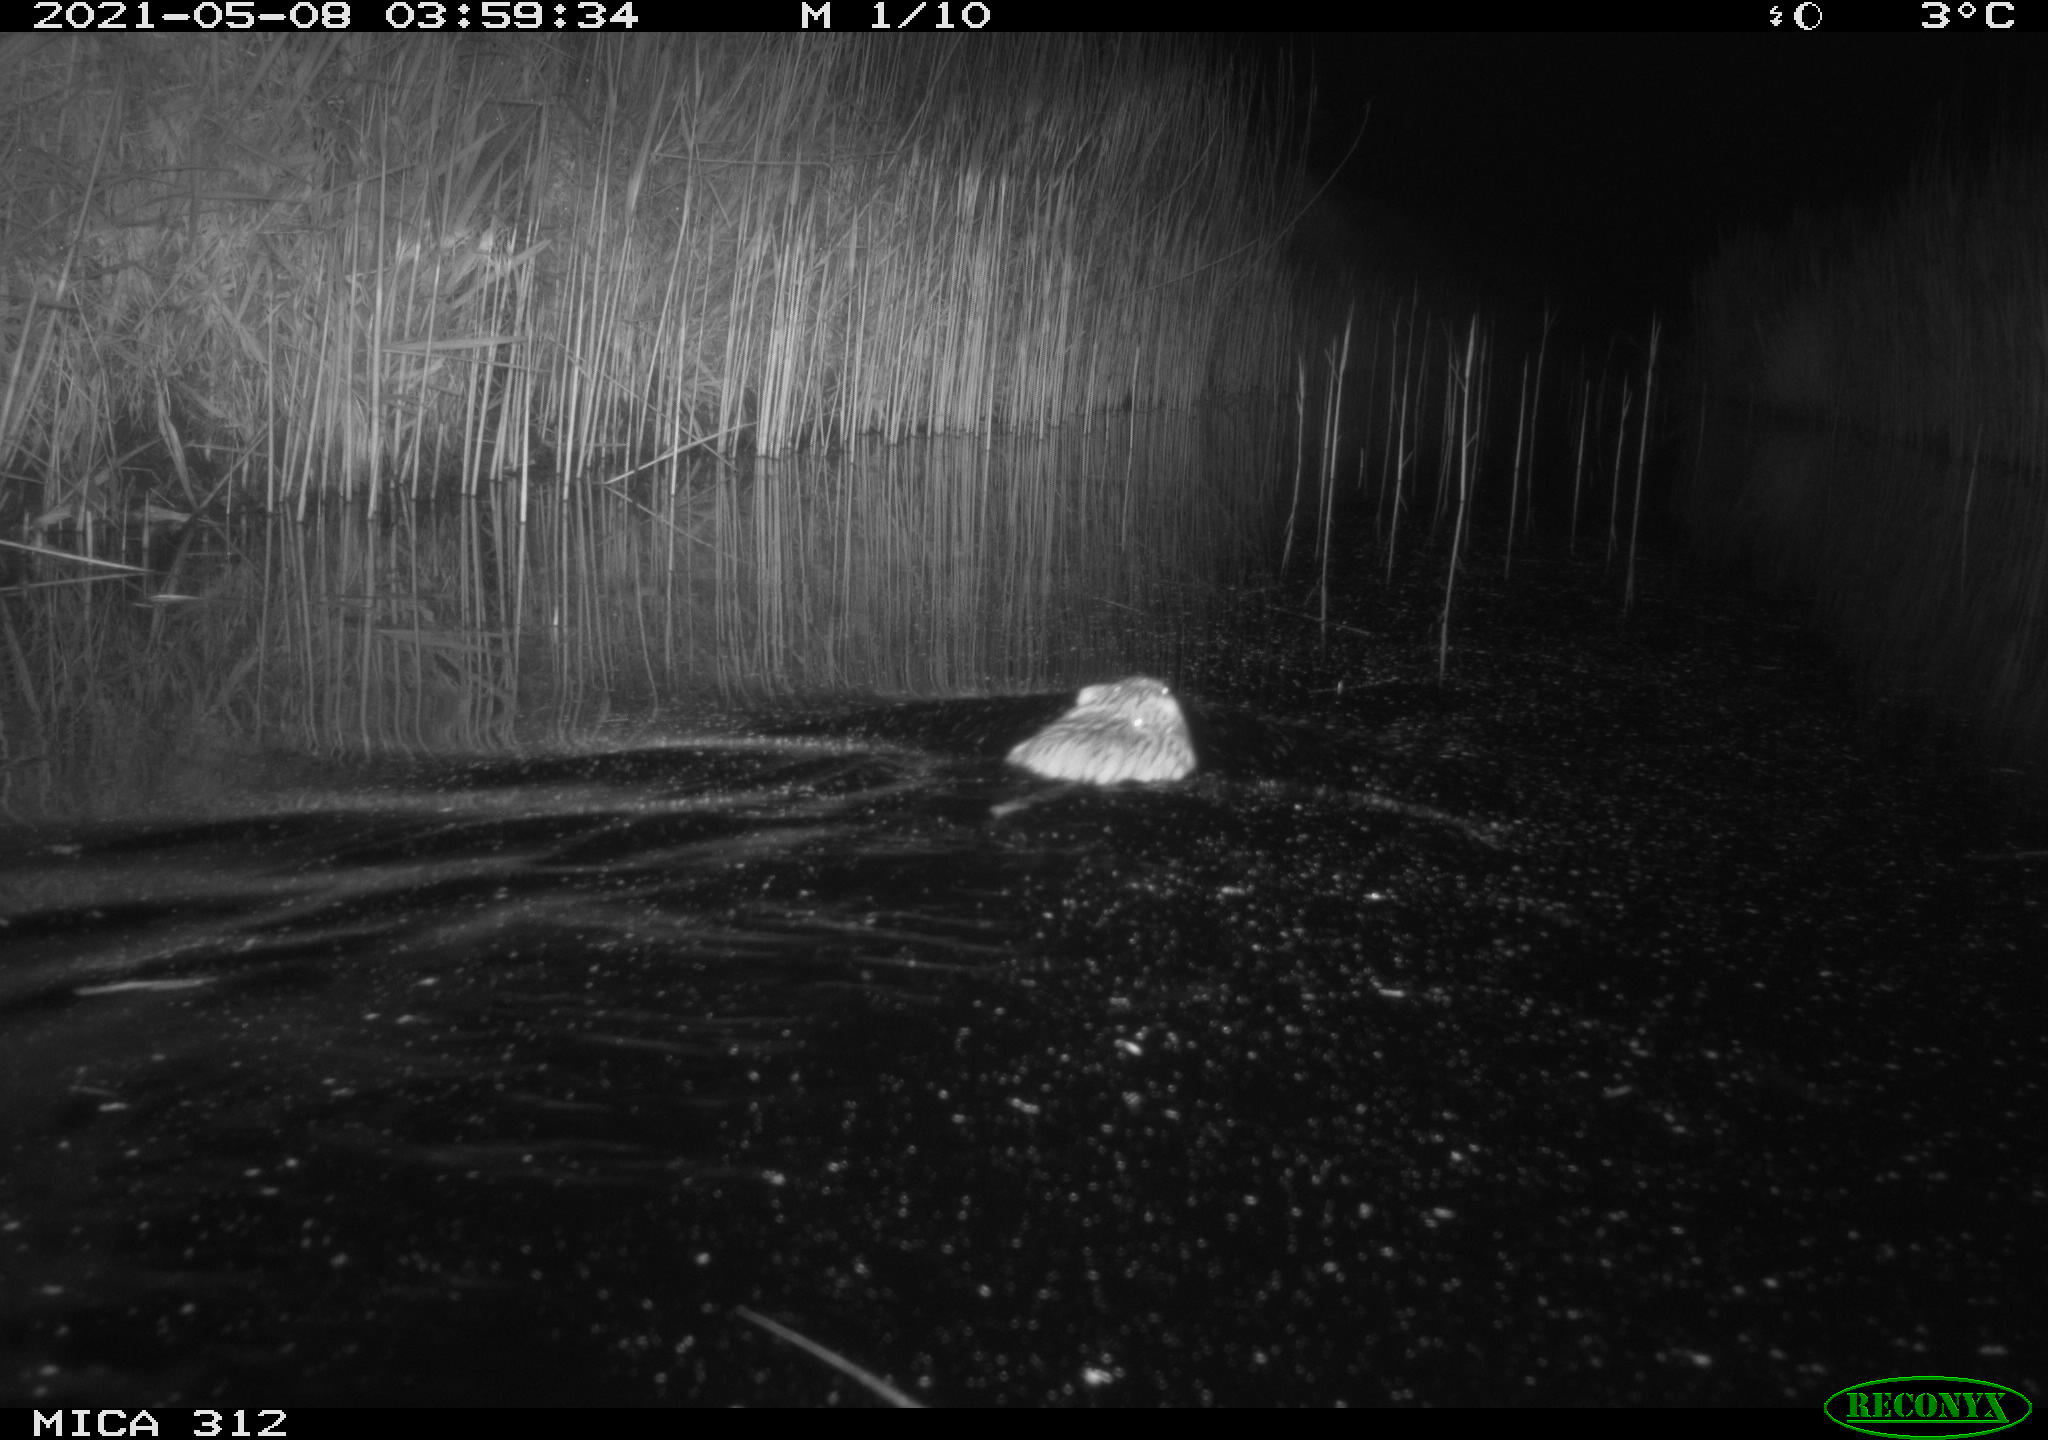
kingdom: Animalia
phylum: Chordata
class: Mammalia
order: Rodentia
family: Cricetidae
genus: Ondatra
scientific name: Ondatra zibethicus
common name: Muskrat
